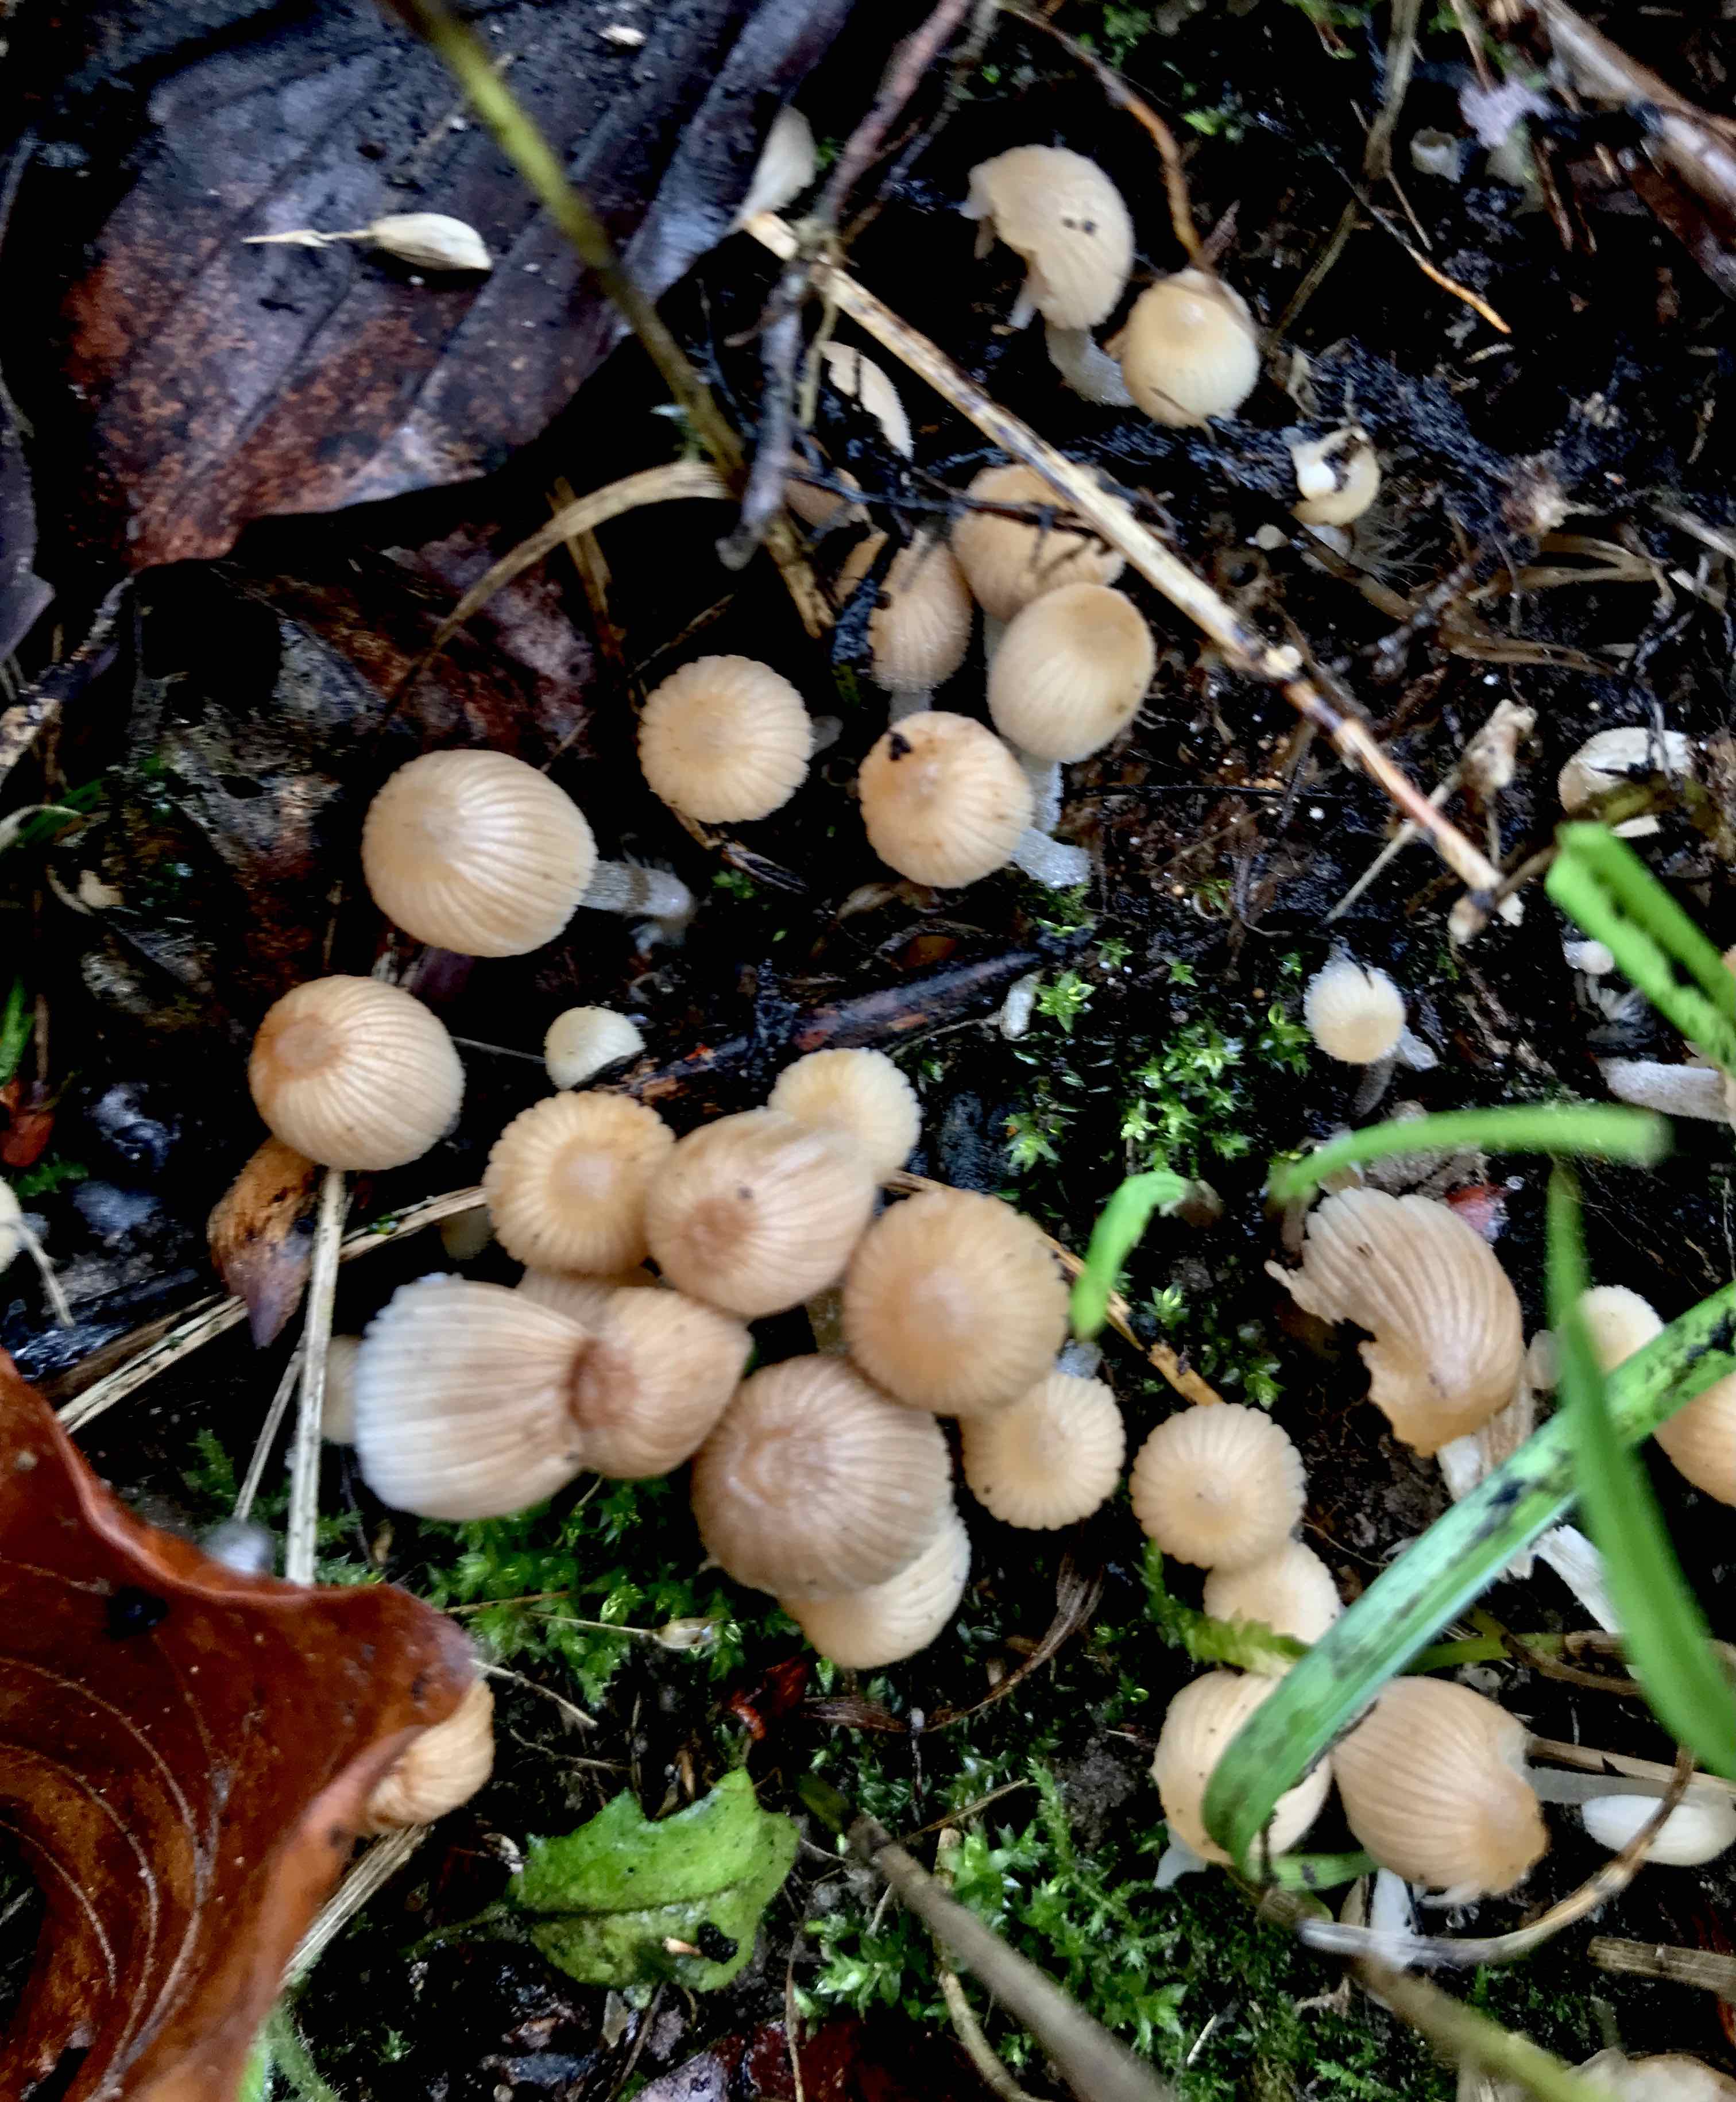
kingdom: Fungi
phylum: Basidiomycota
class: Agaricomycetes
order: Agaricales
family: Psathyrellaceae
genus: Coprinellus
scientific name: Coprinellus disseminatus
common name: bredsået blækhat
